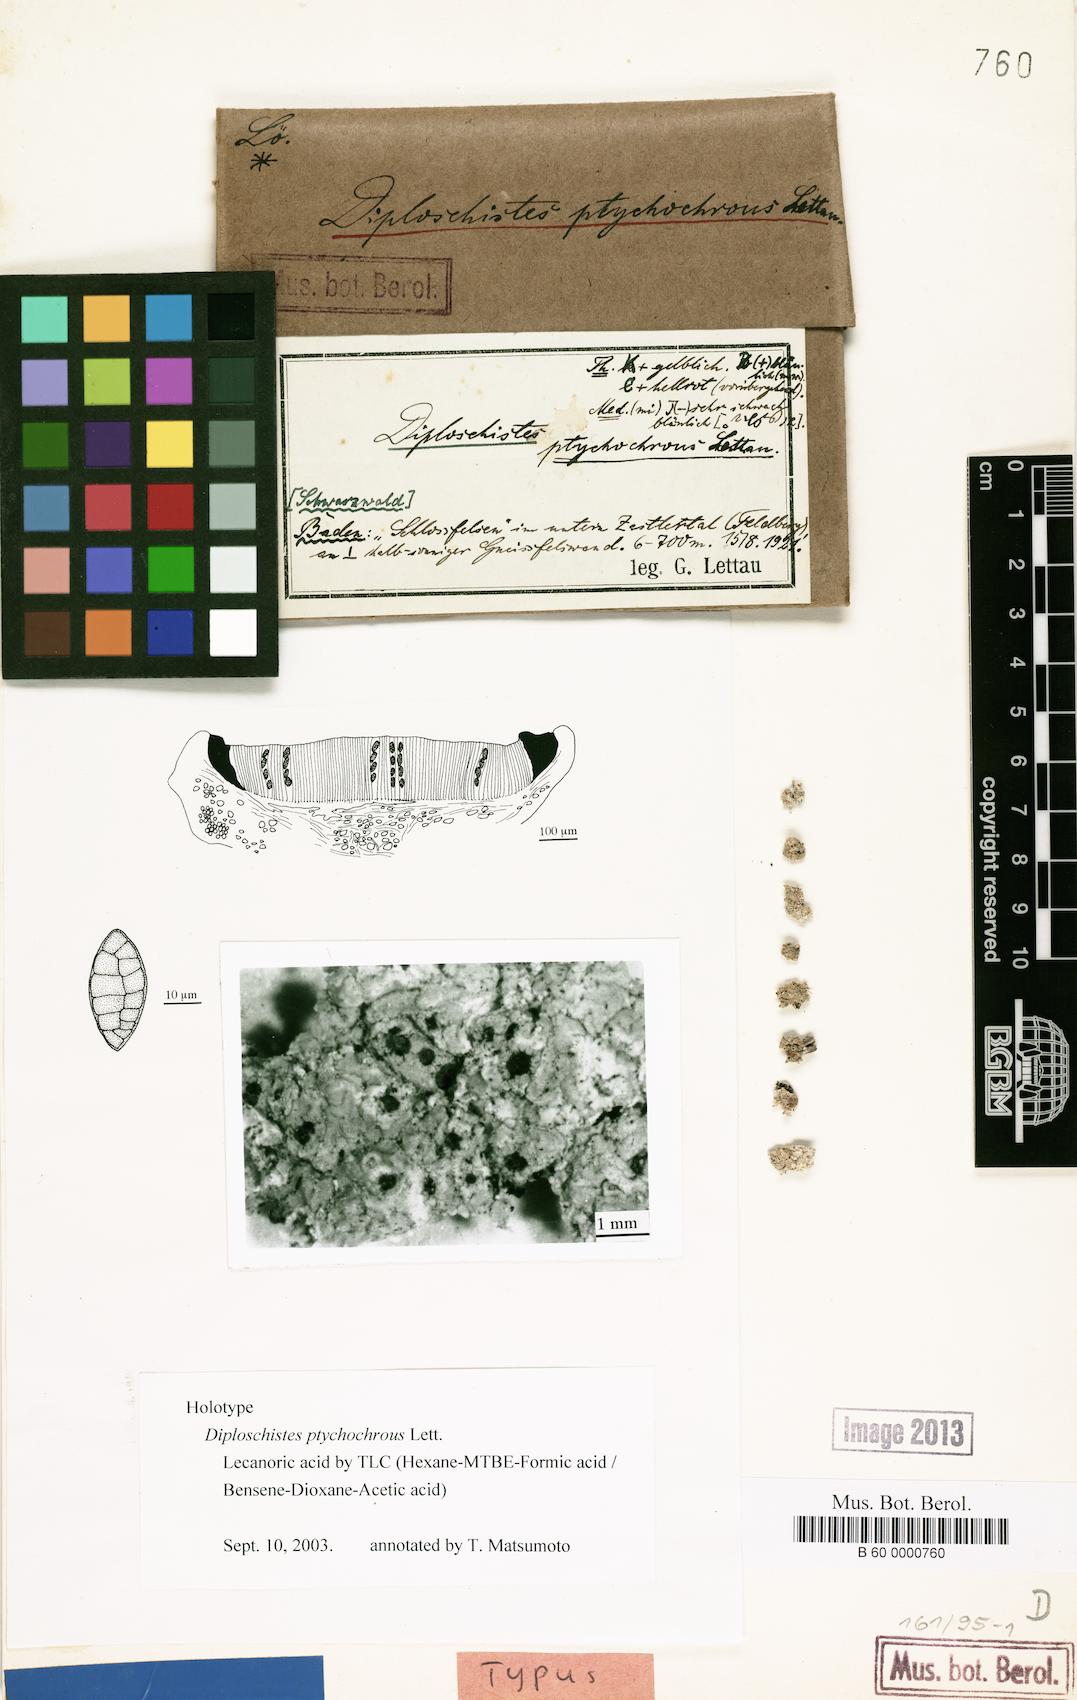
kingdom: Fungi
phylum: Ascomycota
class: Lecanoromycetes
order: Ostropales
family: Graphidaceae
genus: Diploschistes
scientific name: Diploschistes scruposus
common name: Crater lichen
